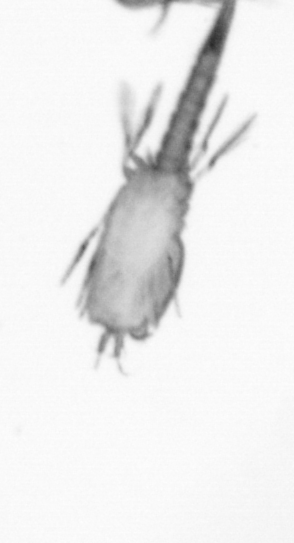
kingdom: Animalia
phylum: Arthropoda
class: Copepoda
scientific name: Copepoda
